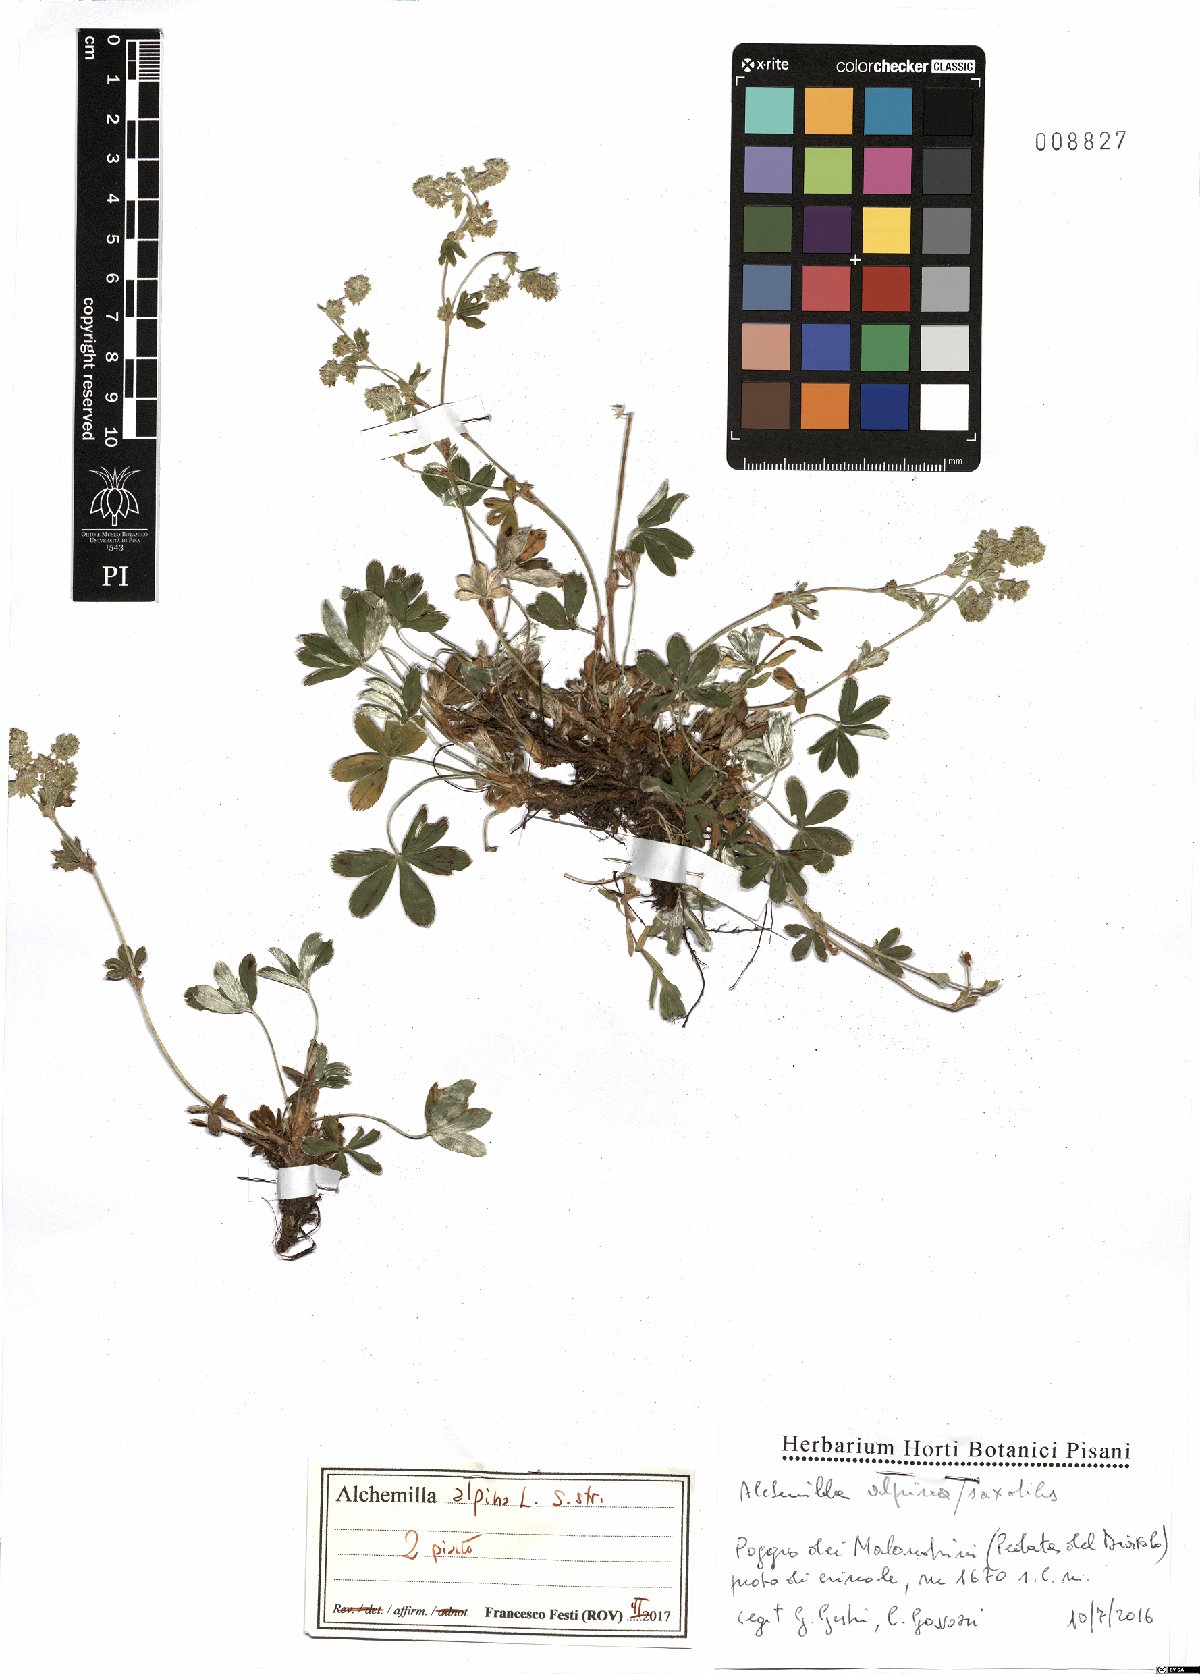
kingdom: Plantae
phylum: Tracheophyta
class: Magnoliopsida
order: Rosales
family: Rosaceae
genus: Alchemilla
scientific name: Alchemilla alpina
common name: Alpine lady's-mantle
